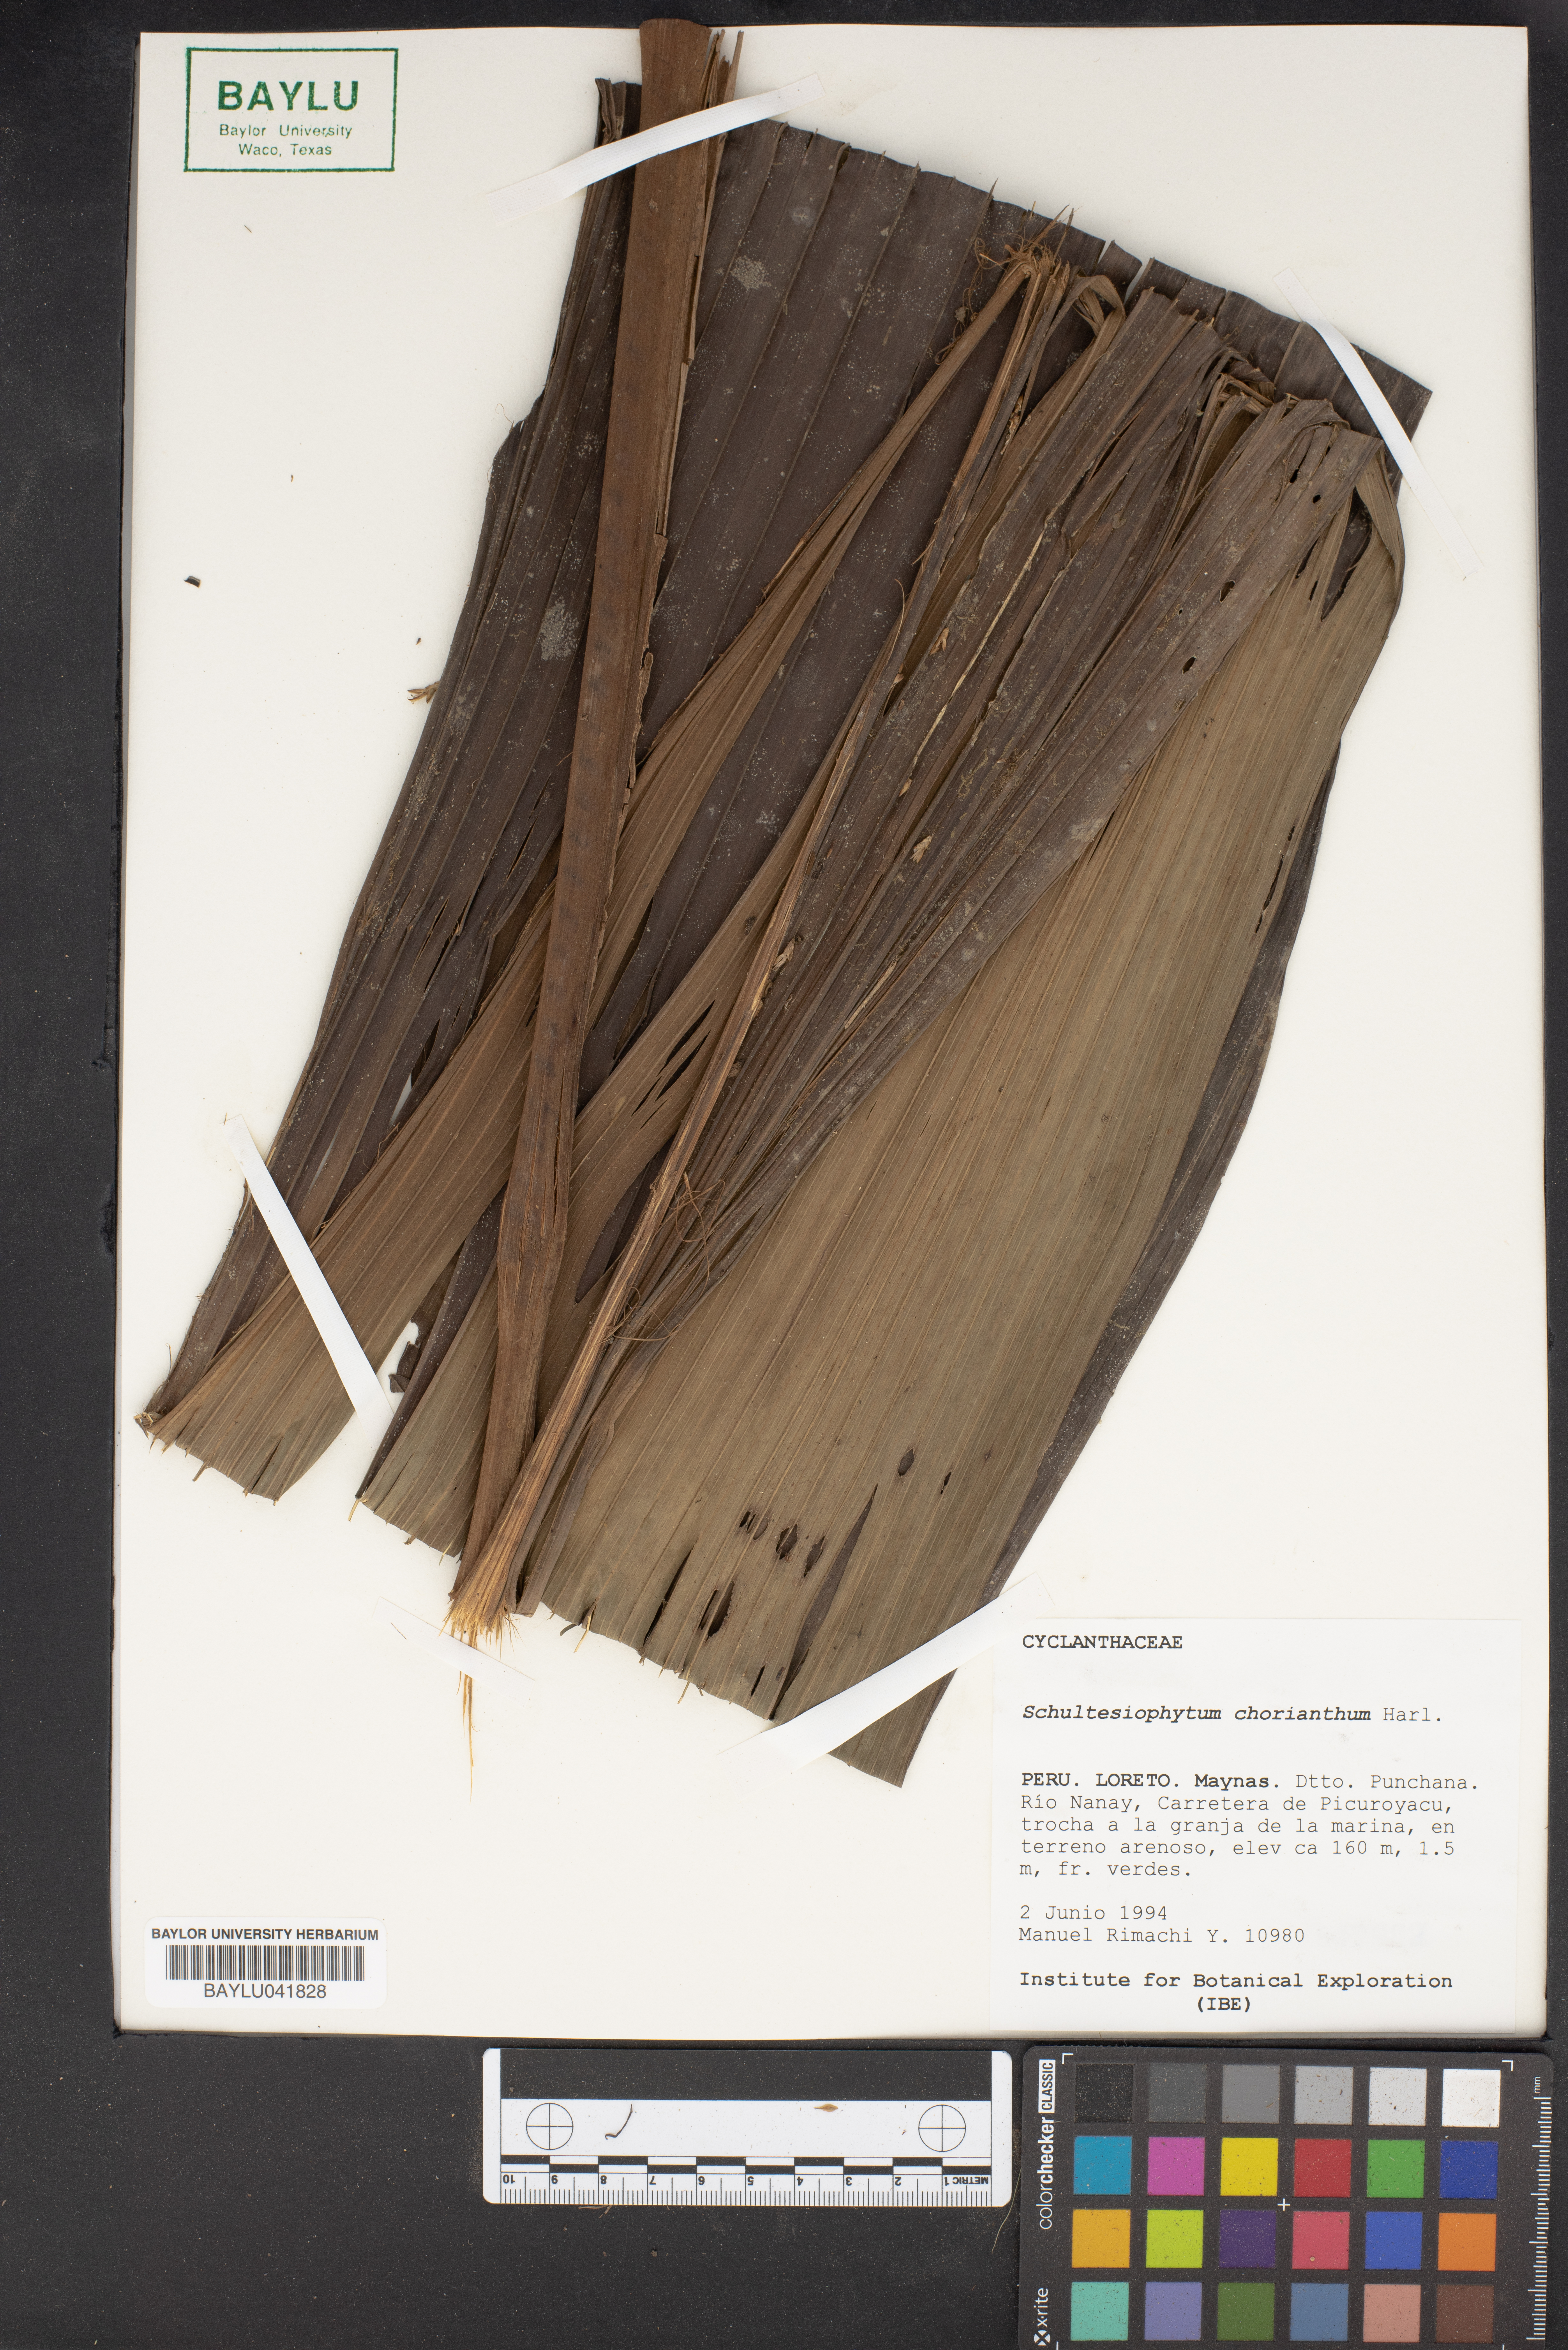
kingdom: Plantae
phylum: Tracheophyta
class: Liliopsida
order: Pandanales
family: Cyclanthaceae
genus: Schultesiophytum
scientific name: Schultesiophytum chorianthum
